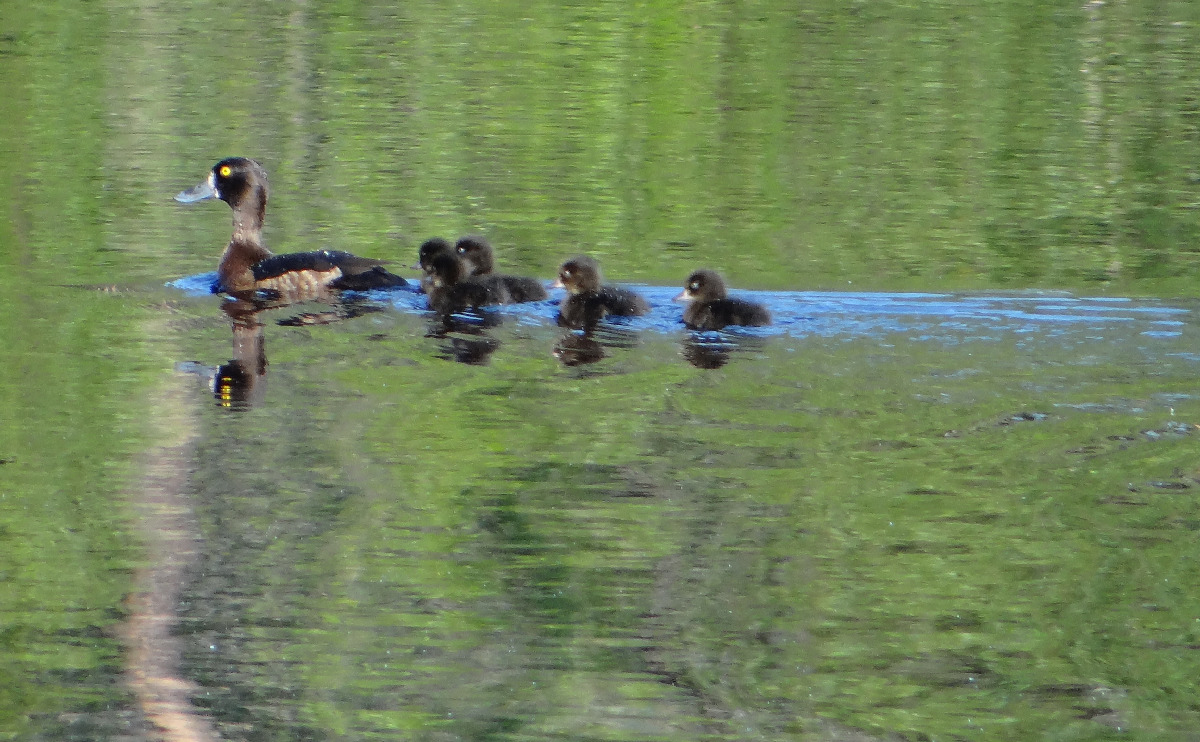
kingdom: Animalia
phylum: Chordata
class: Aves
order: Anseriformes
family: Anatidae
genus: Aythya
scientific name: Aythya fuligula
